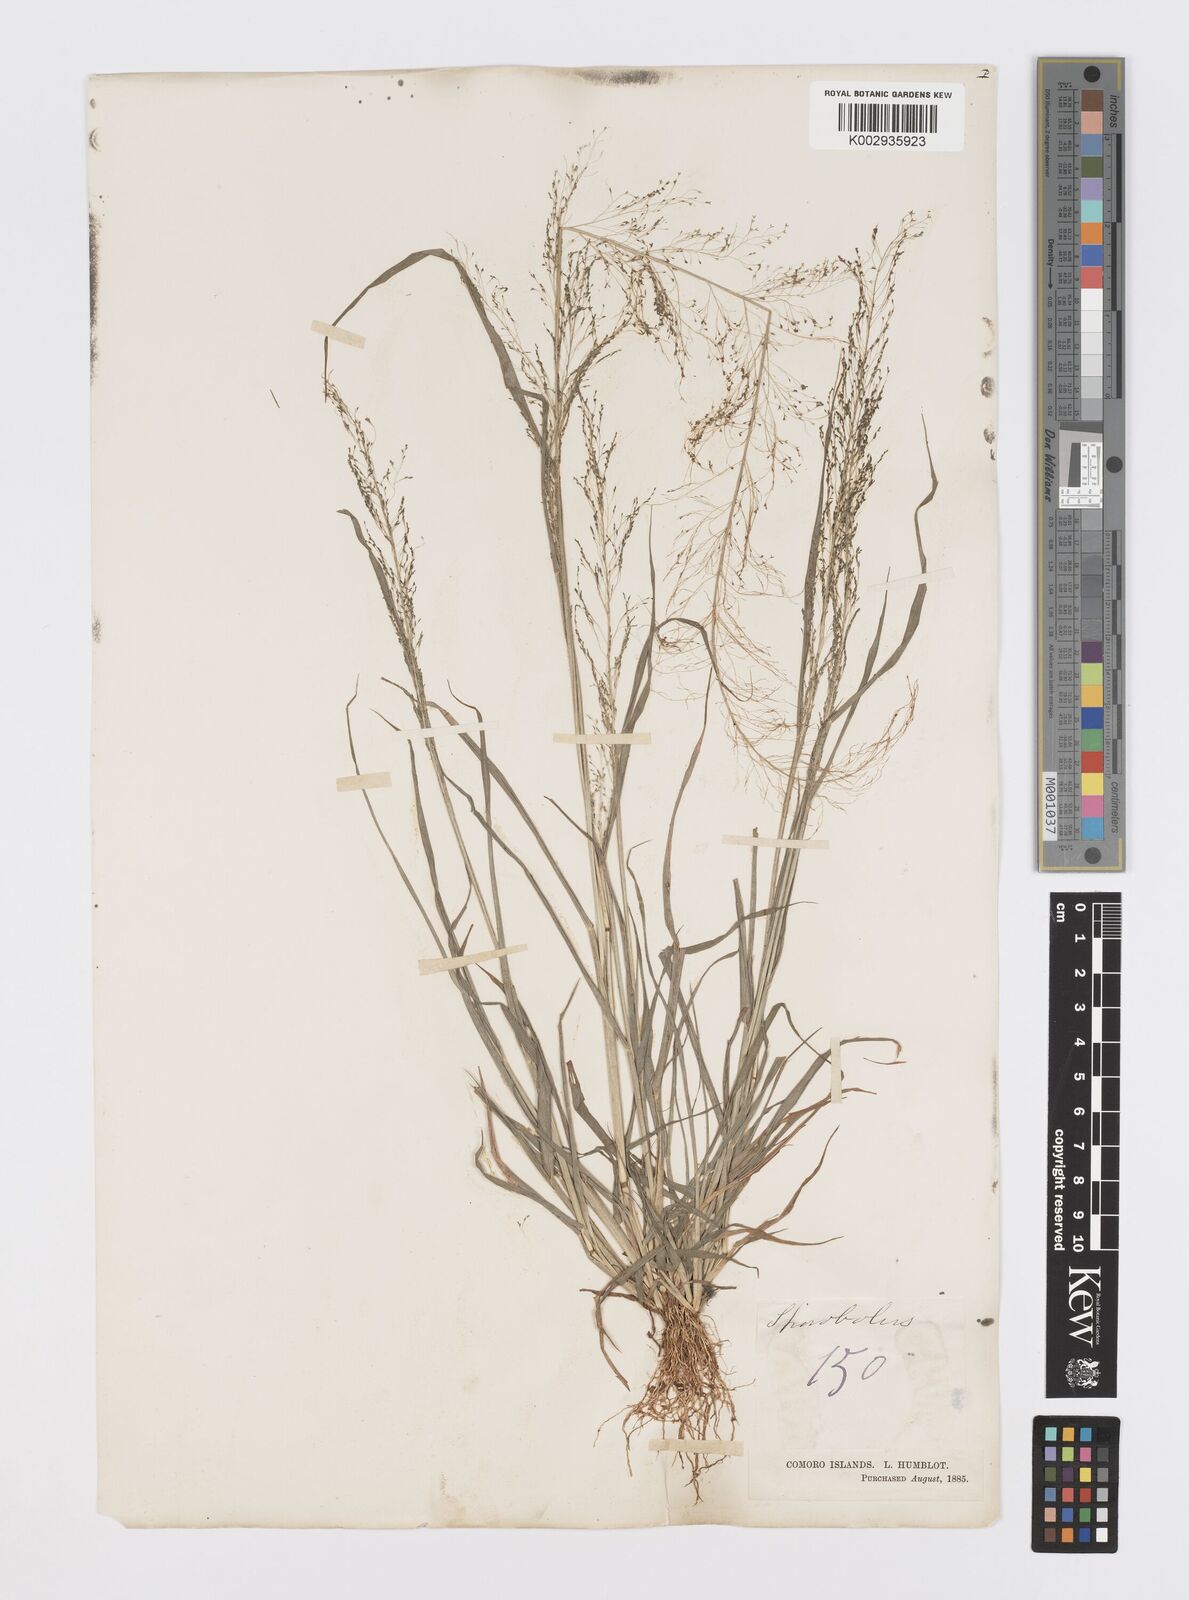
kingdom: Plantae
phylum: Tracheophyta
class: Liliopsida
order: Poales
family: Poaceae
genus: Sporobolus
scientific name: Sporobolus tenuissimus
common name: Tropical dropseed
